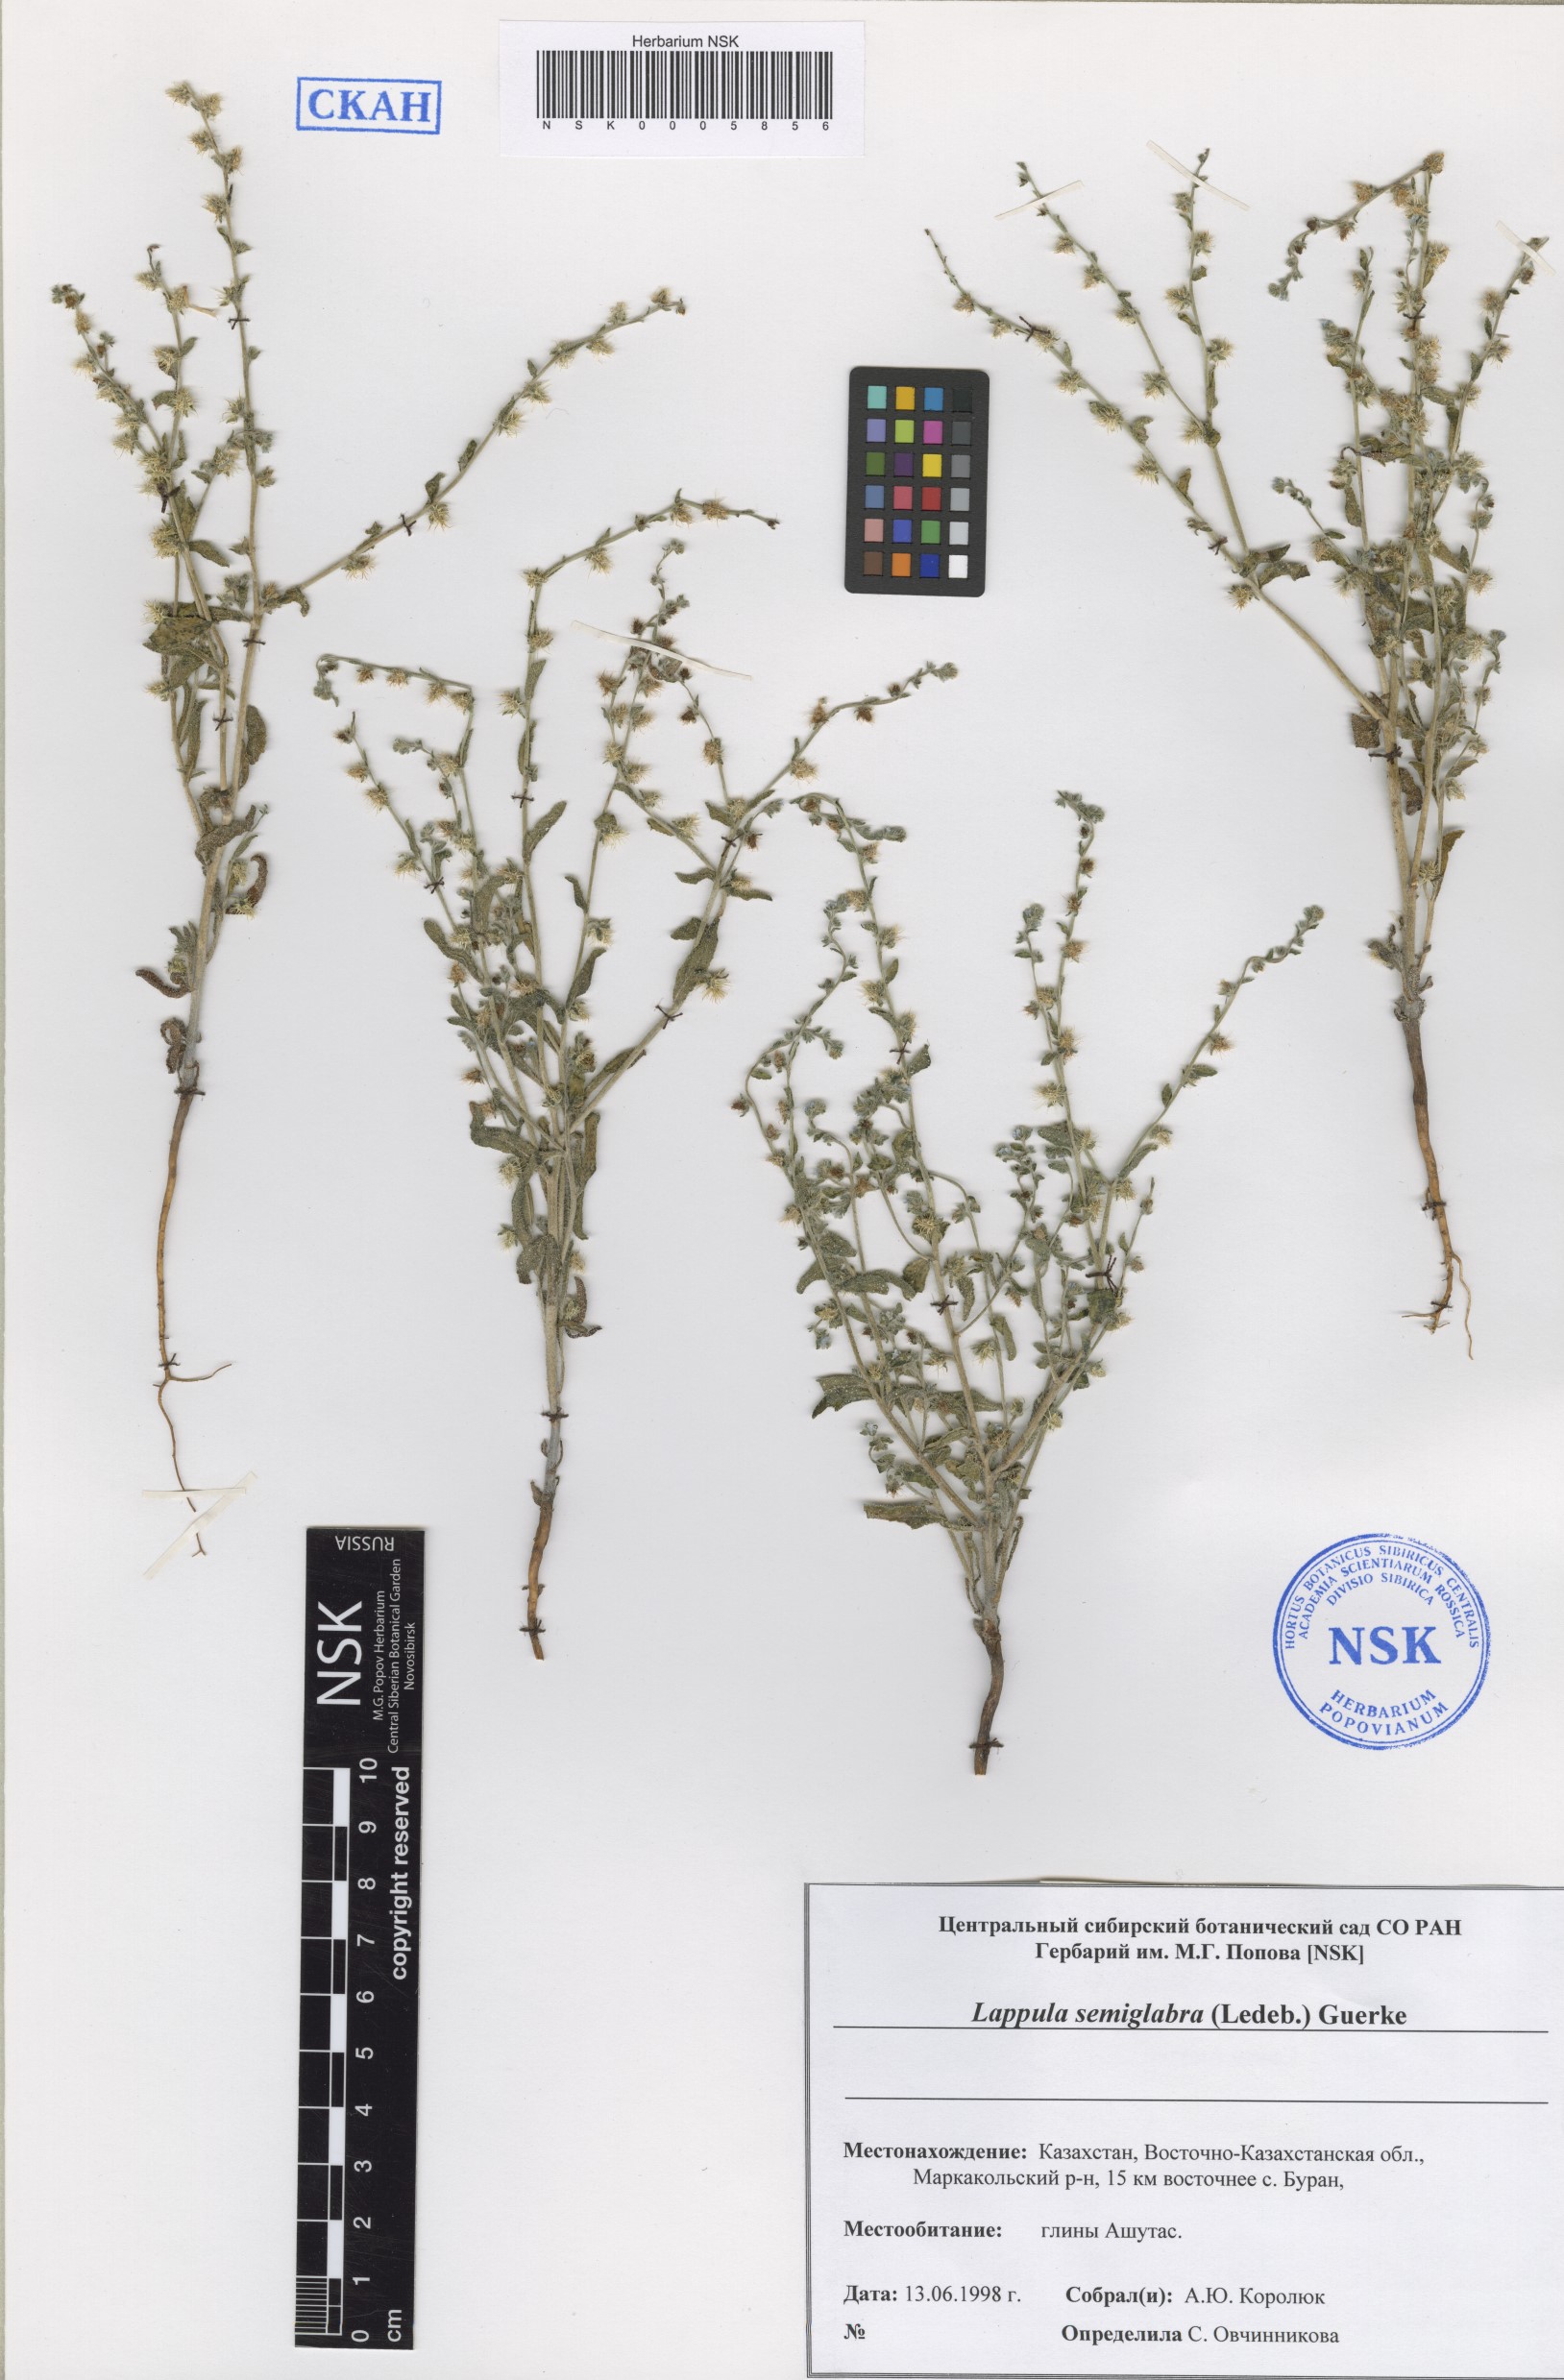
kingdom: Plantae
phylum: Tracheophyta
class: Magnoliopsida
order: Boraginales
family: Boraginaceae
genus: Lappula
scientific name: Lappula patula
